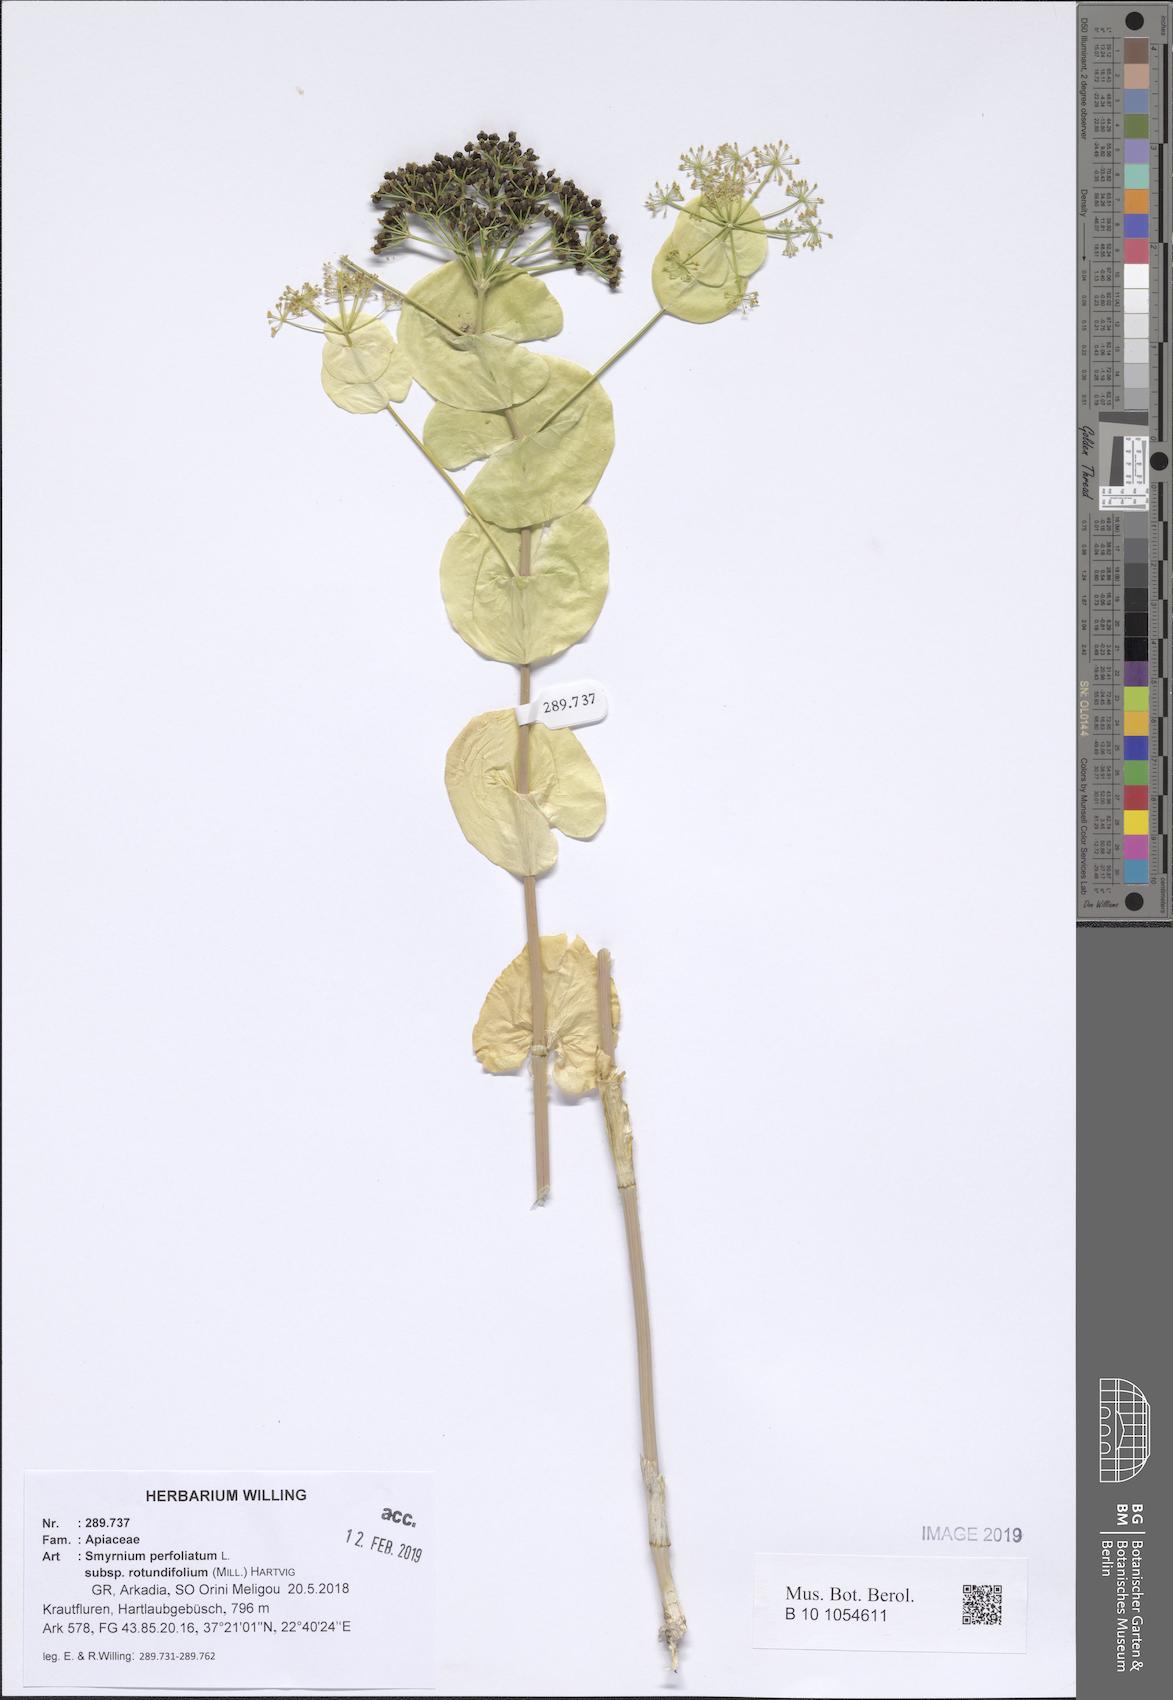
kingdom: Plantae
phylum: Tracheophyta
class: Magnoliopsida
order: Apiales
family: Apiaceae
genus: Smyrnium
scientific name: Smyrnium perfoliatum
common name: Perfoliate alexanders
